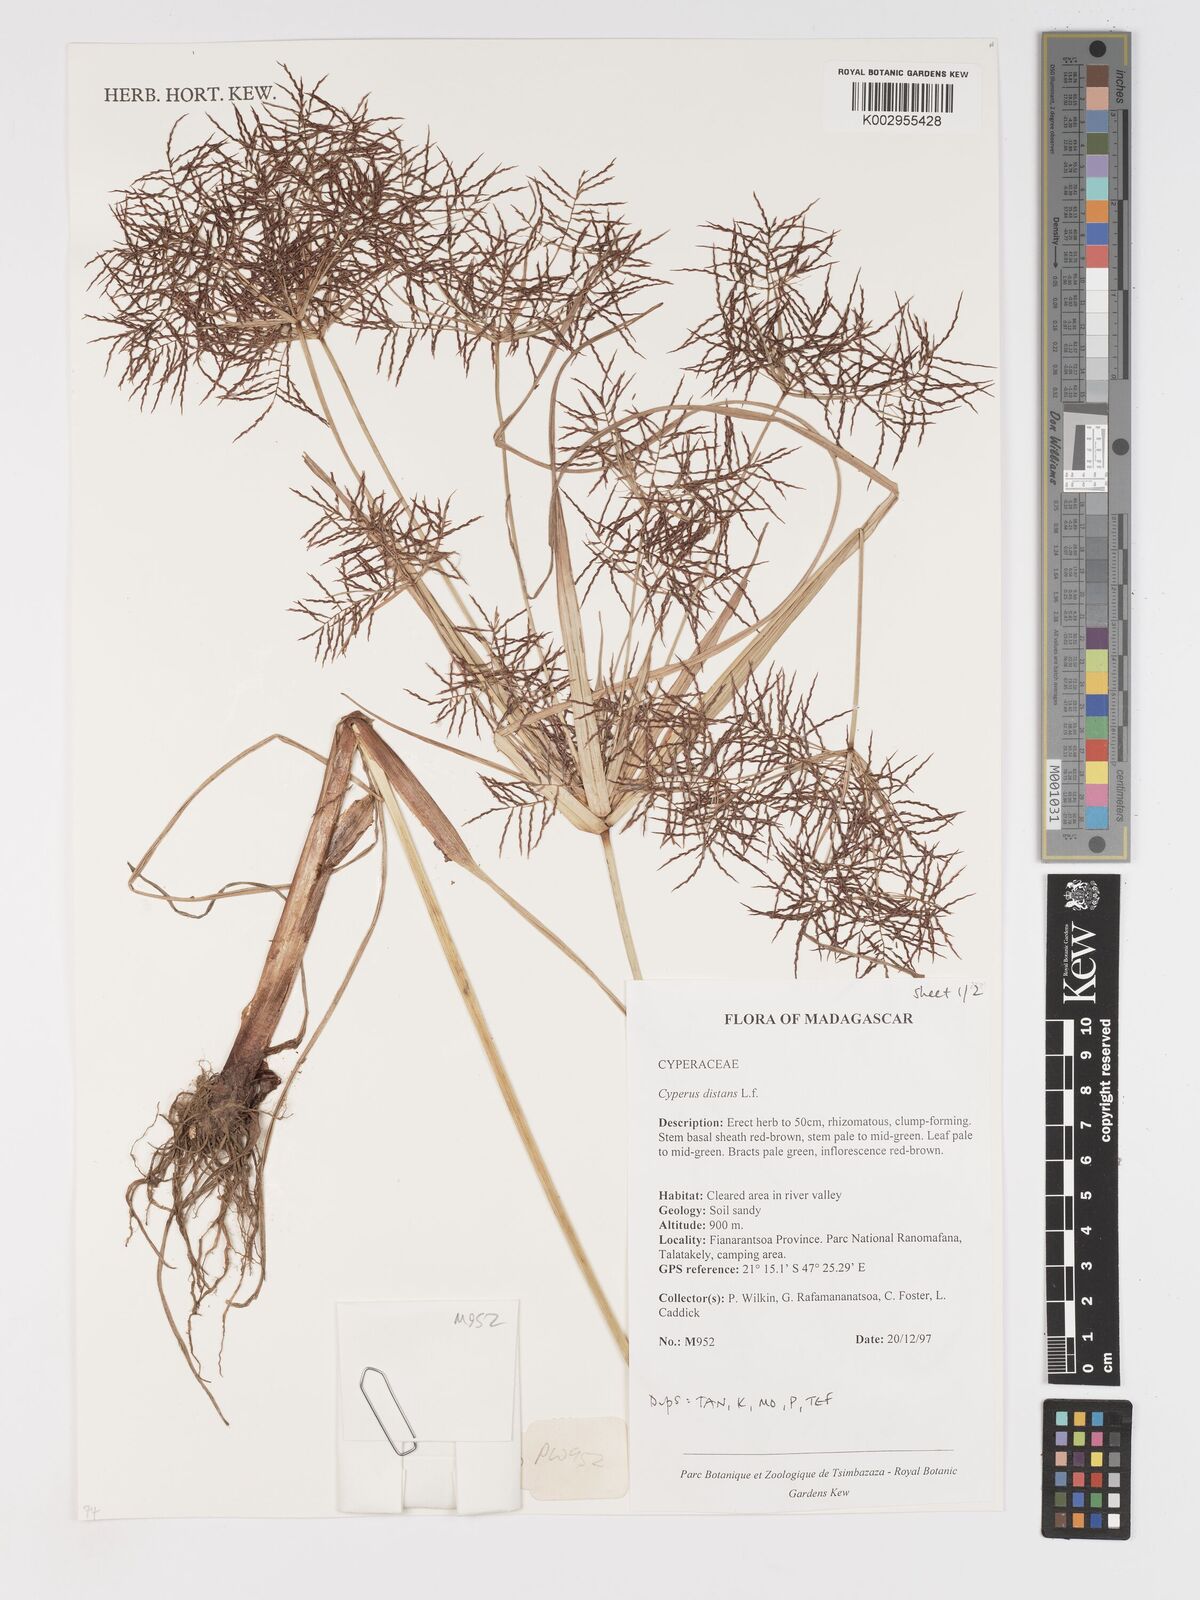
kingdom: Plantae
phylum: Tracheophyta
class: Liliopsida
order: Poales
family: Cyperaceae
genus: Cyperus
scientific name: Cyperus distans
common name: Slender cyperus
